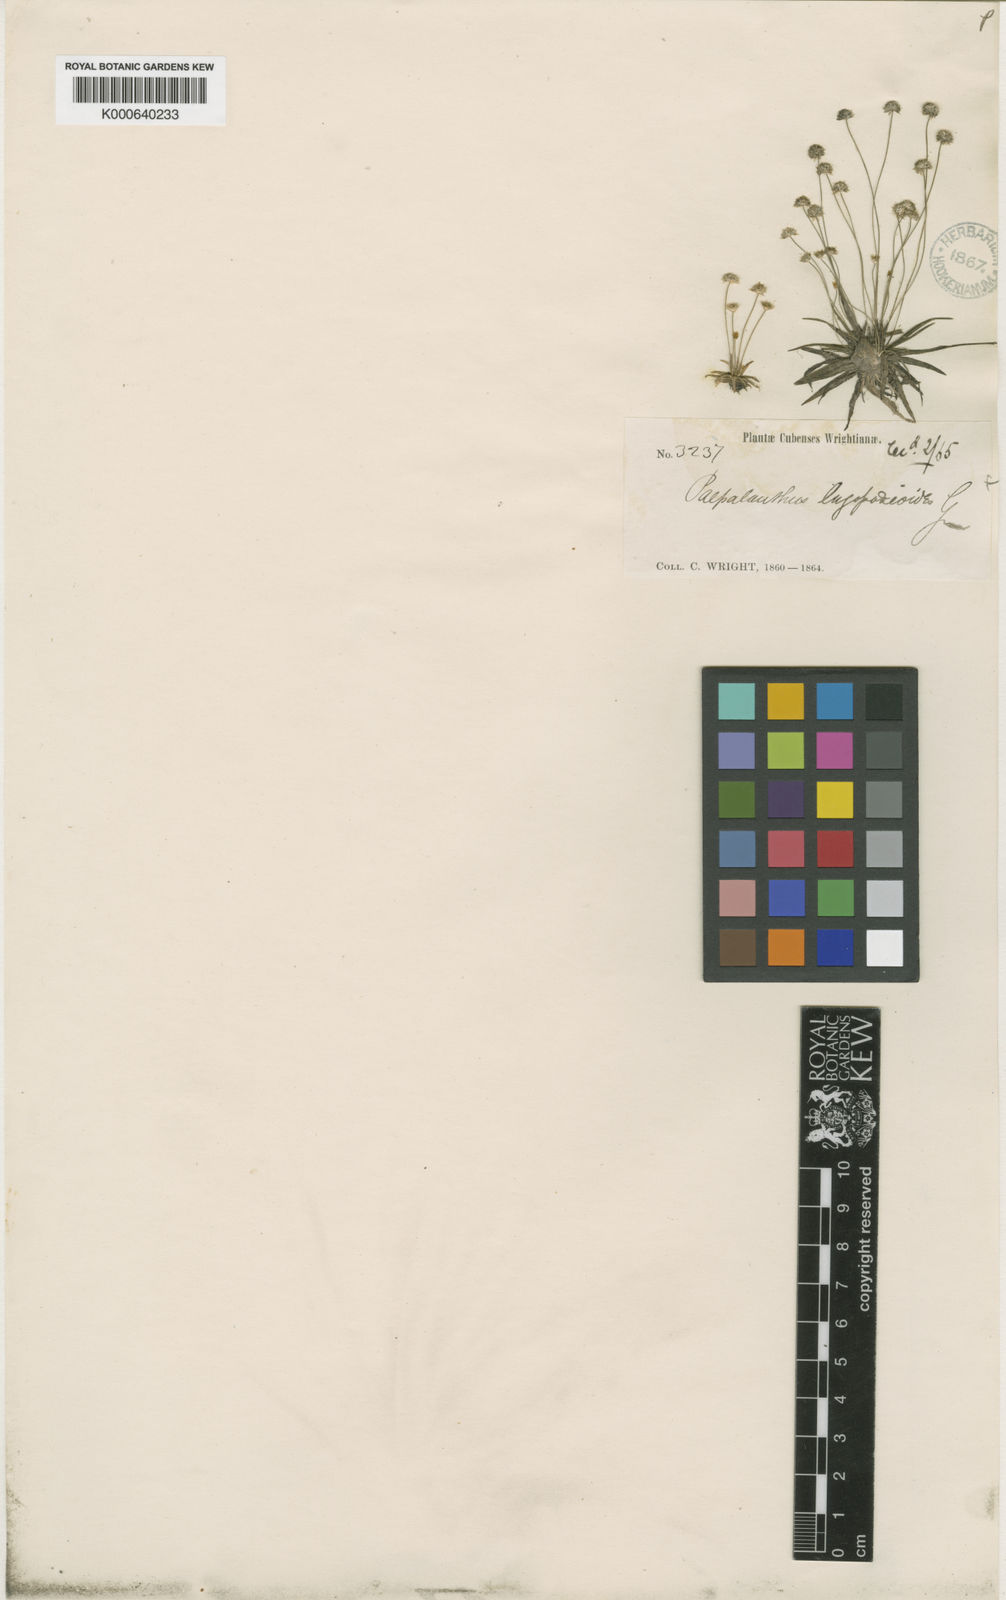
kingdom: Plantae
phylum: Tracheophyta
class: Liliopsida
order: Poales
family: Eriocaulaceae
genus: Syngonanthus
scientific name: Syngonanthus lagopodioides
